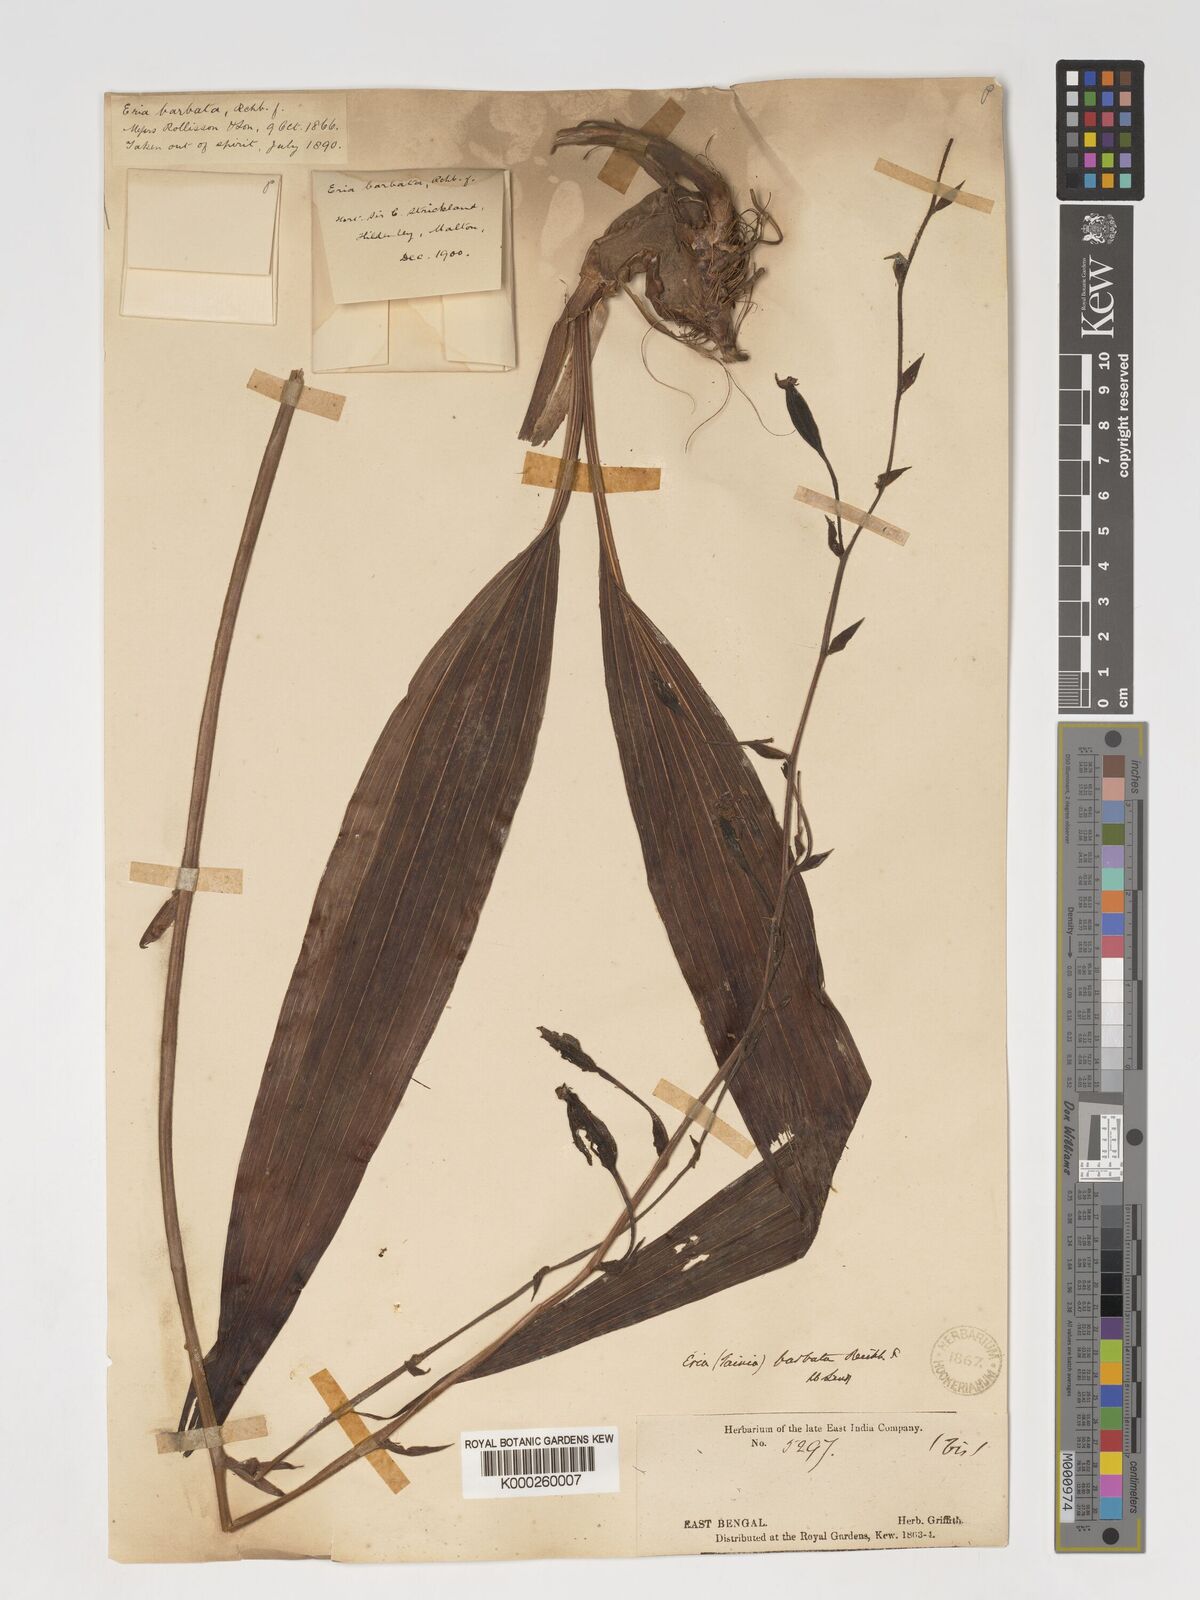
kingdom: Plantae
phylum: Tracheophyta
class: Liliopsida
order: Asparagales
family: Orchidaceae
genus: Eriodes
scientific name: Eriodes barbata
